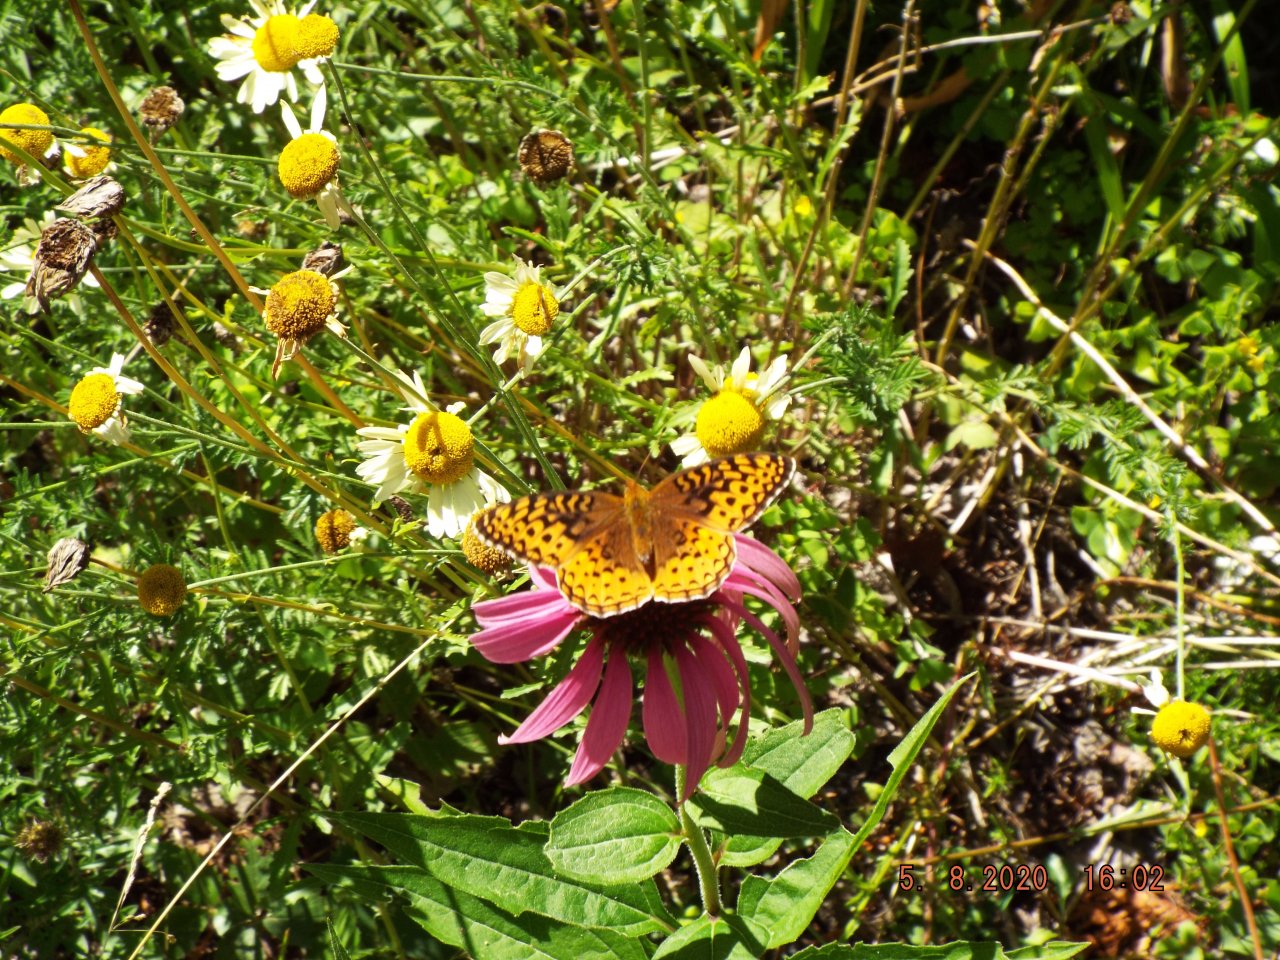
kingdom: Animalia
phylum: Arthropoda
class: Insecta
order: Lepidoptera
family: Nymphalidae
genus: Speyeria
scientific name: Speyeria
